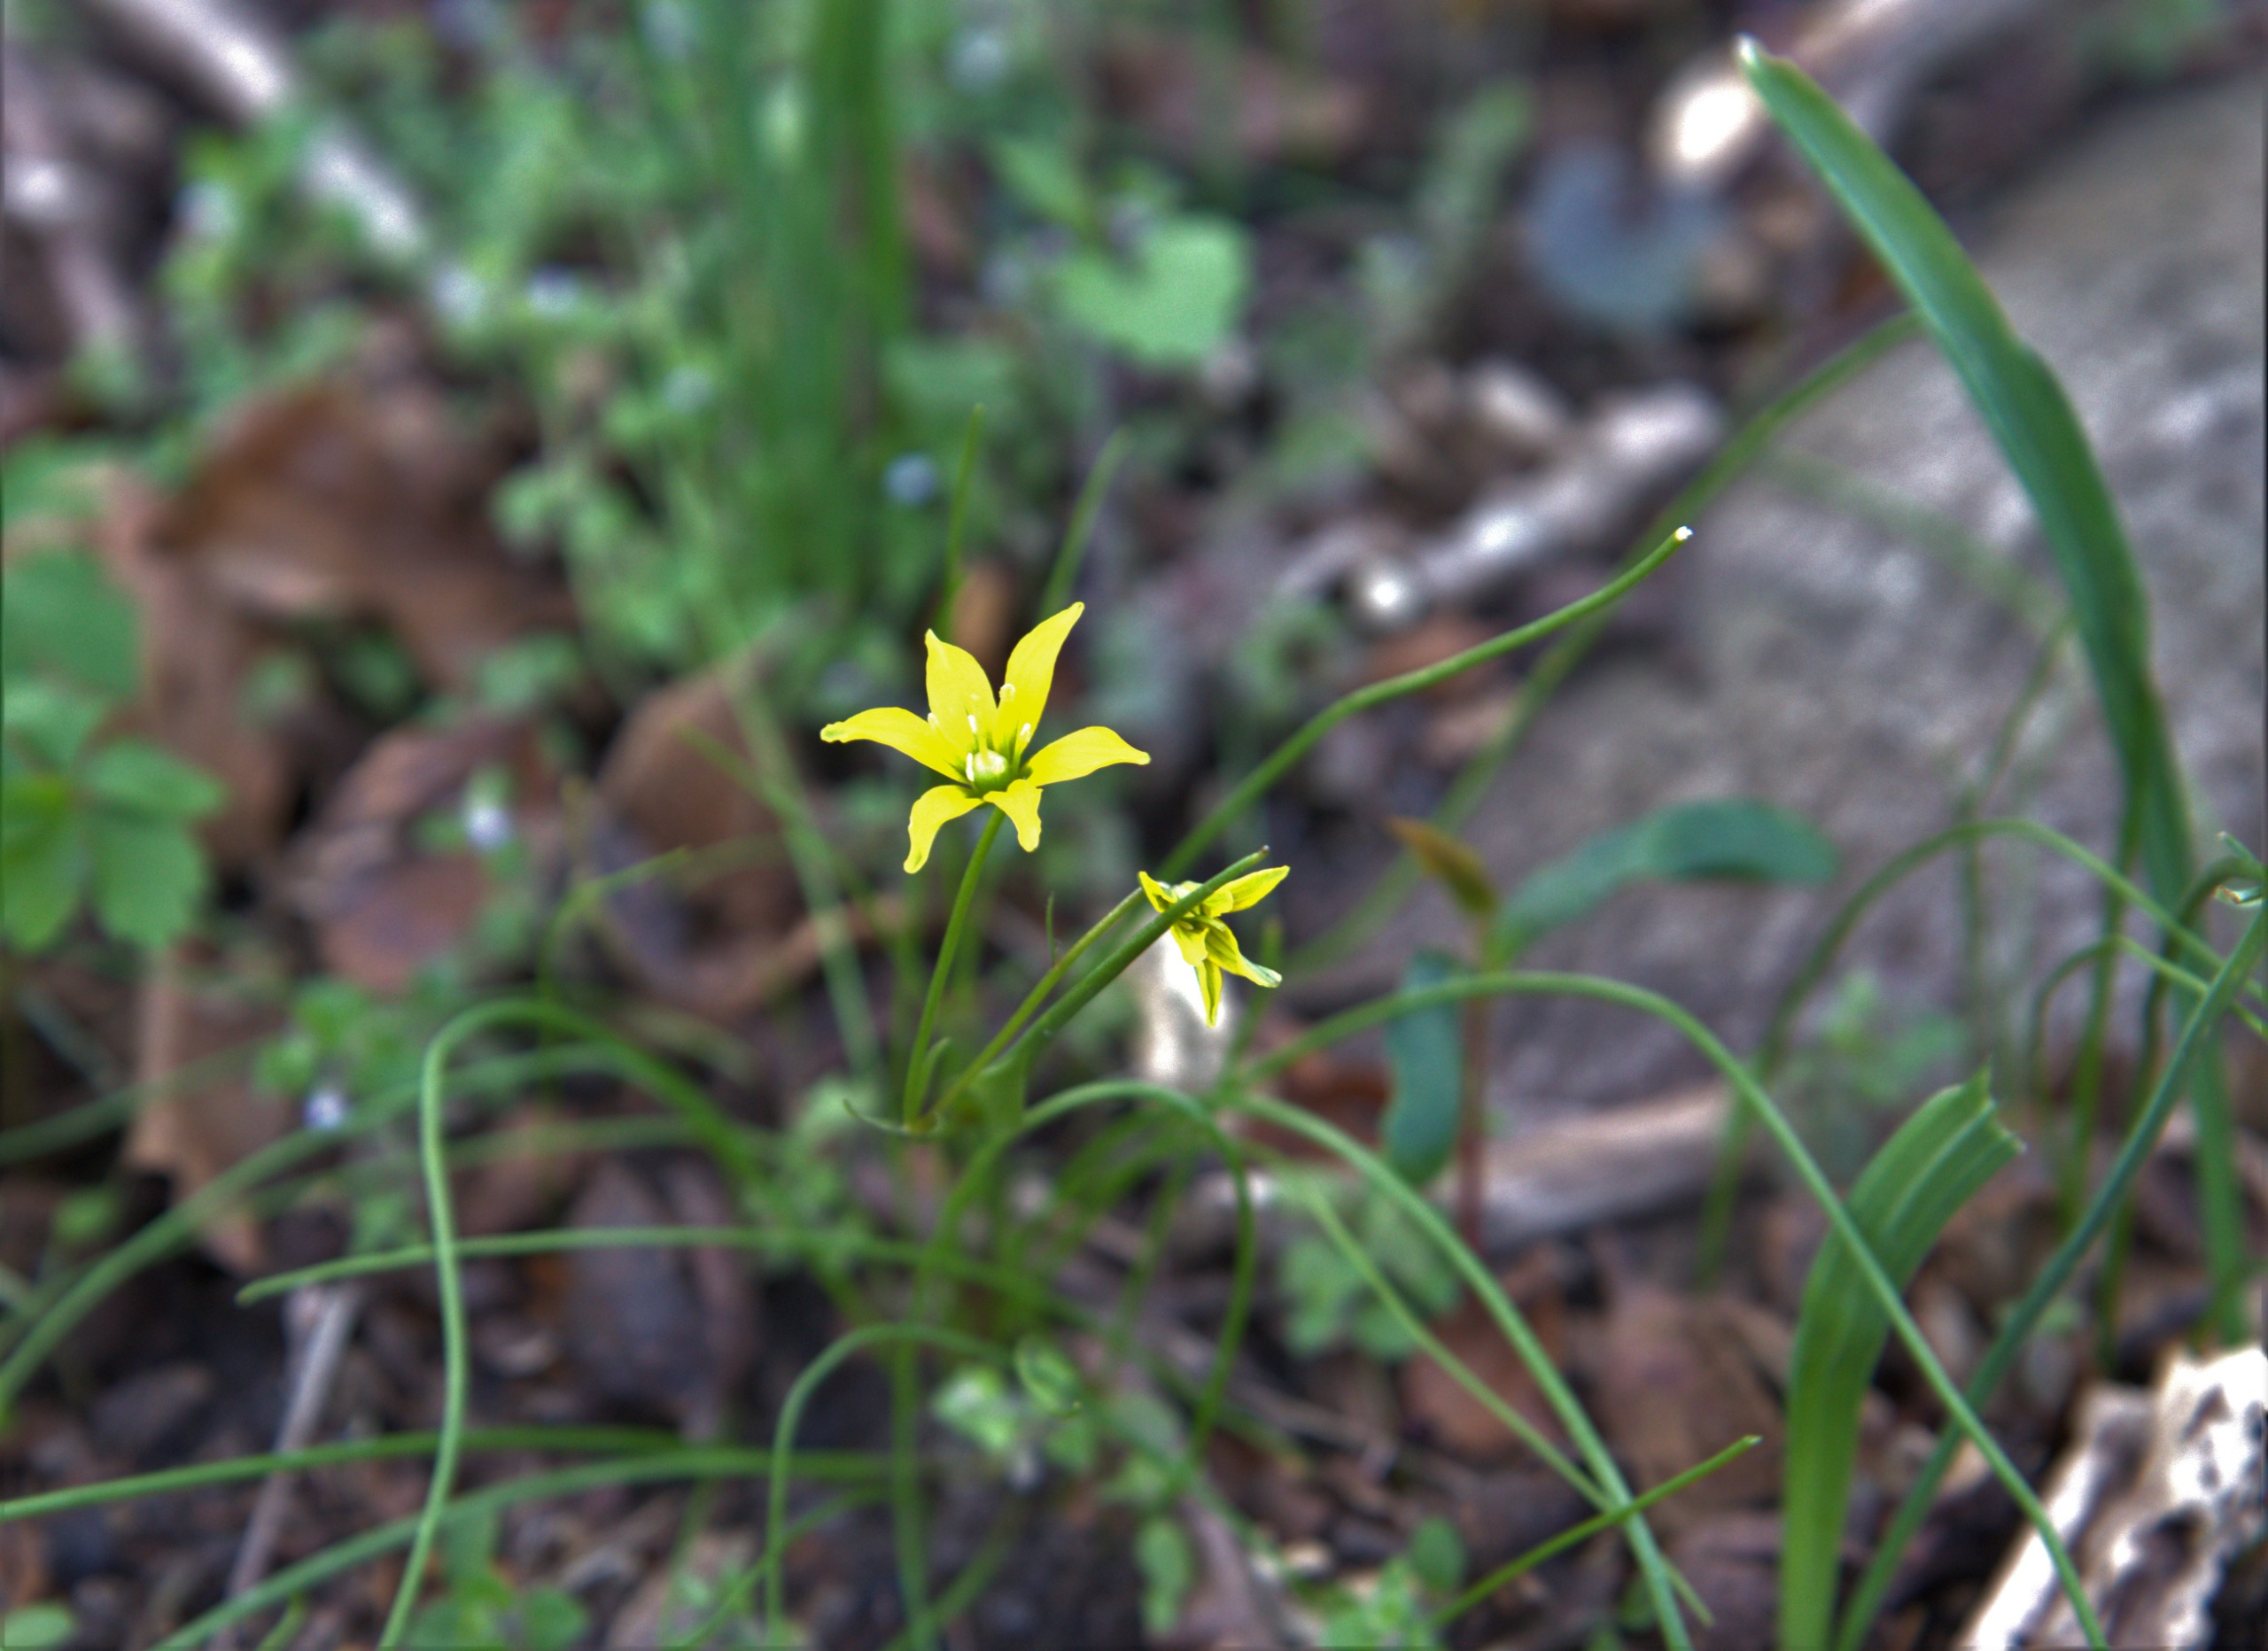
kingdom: Plantae
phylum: Tracheophyta
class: Liliopsida
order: Liliales
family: Liliaceae
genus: Gagea
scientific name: Gagea spathacea
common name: Hylster-guldstjerne
